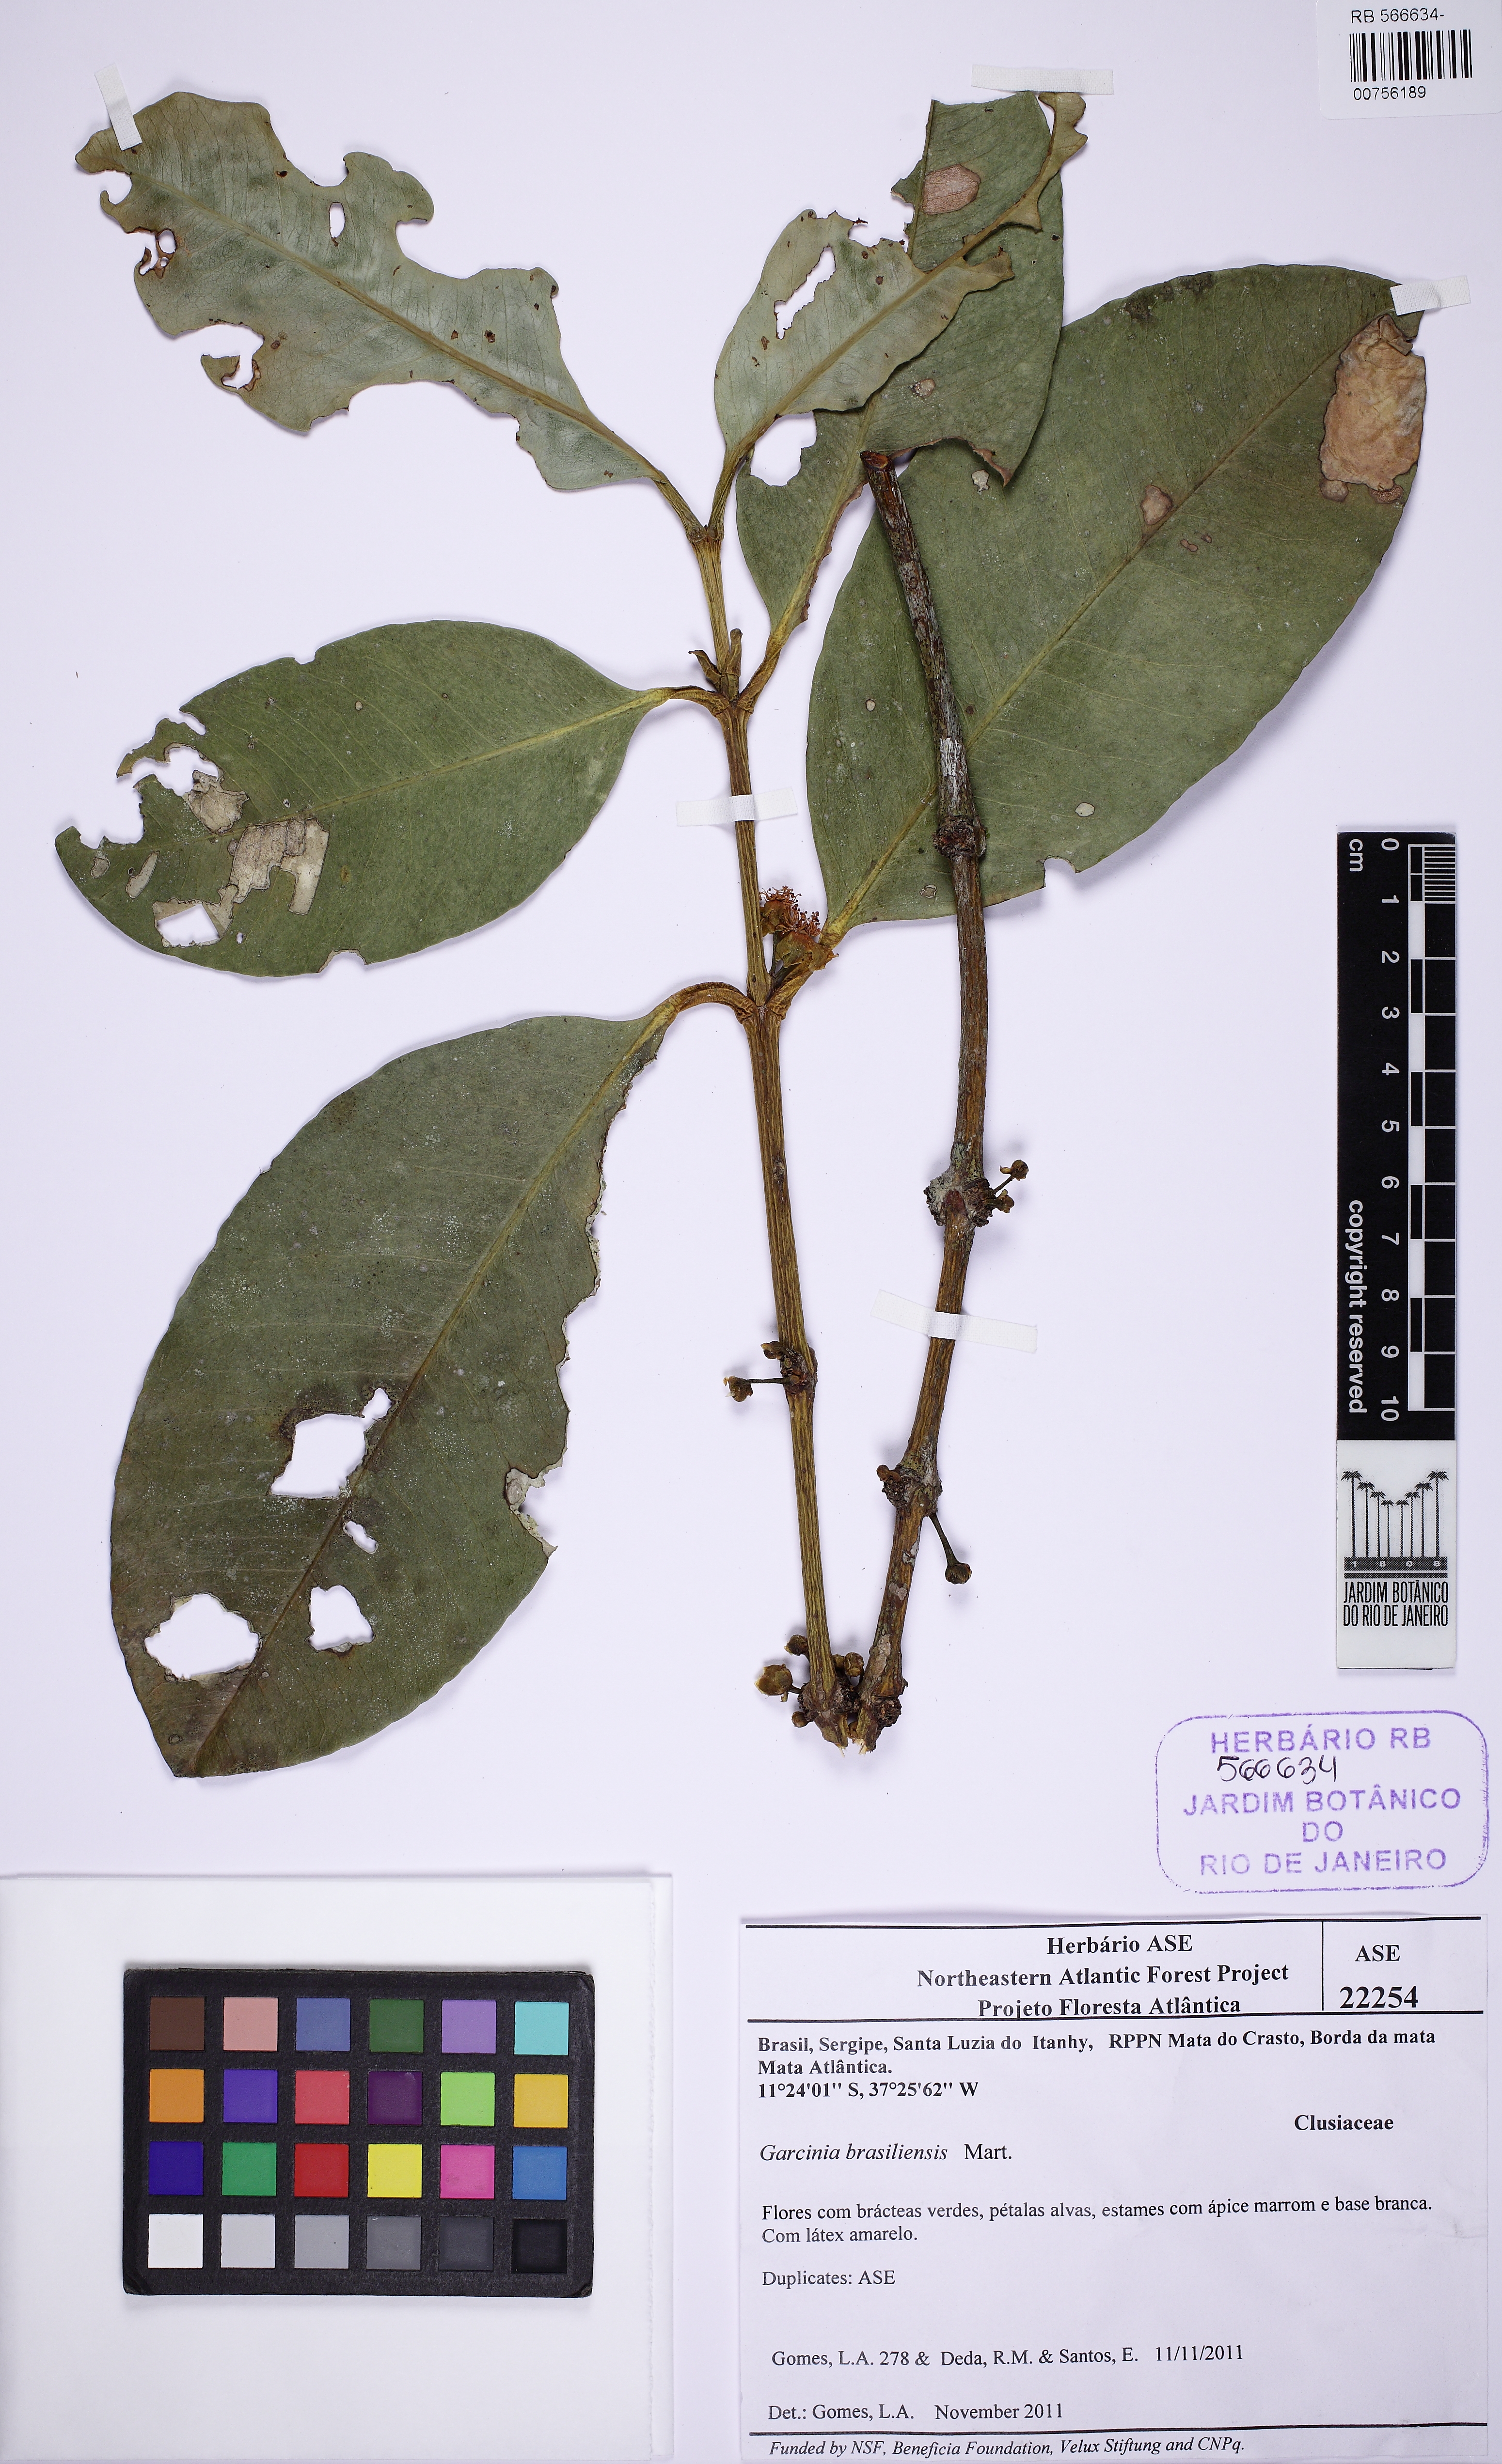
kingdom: Plantae
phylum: Tracheophyta
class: Magnoliopsida
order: Malpighiales
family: Clusiaceae
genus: Garcinia
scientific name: Garcinia brasiliensis
